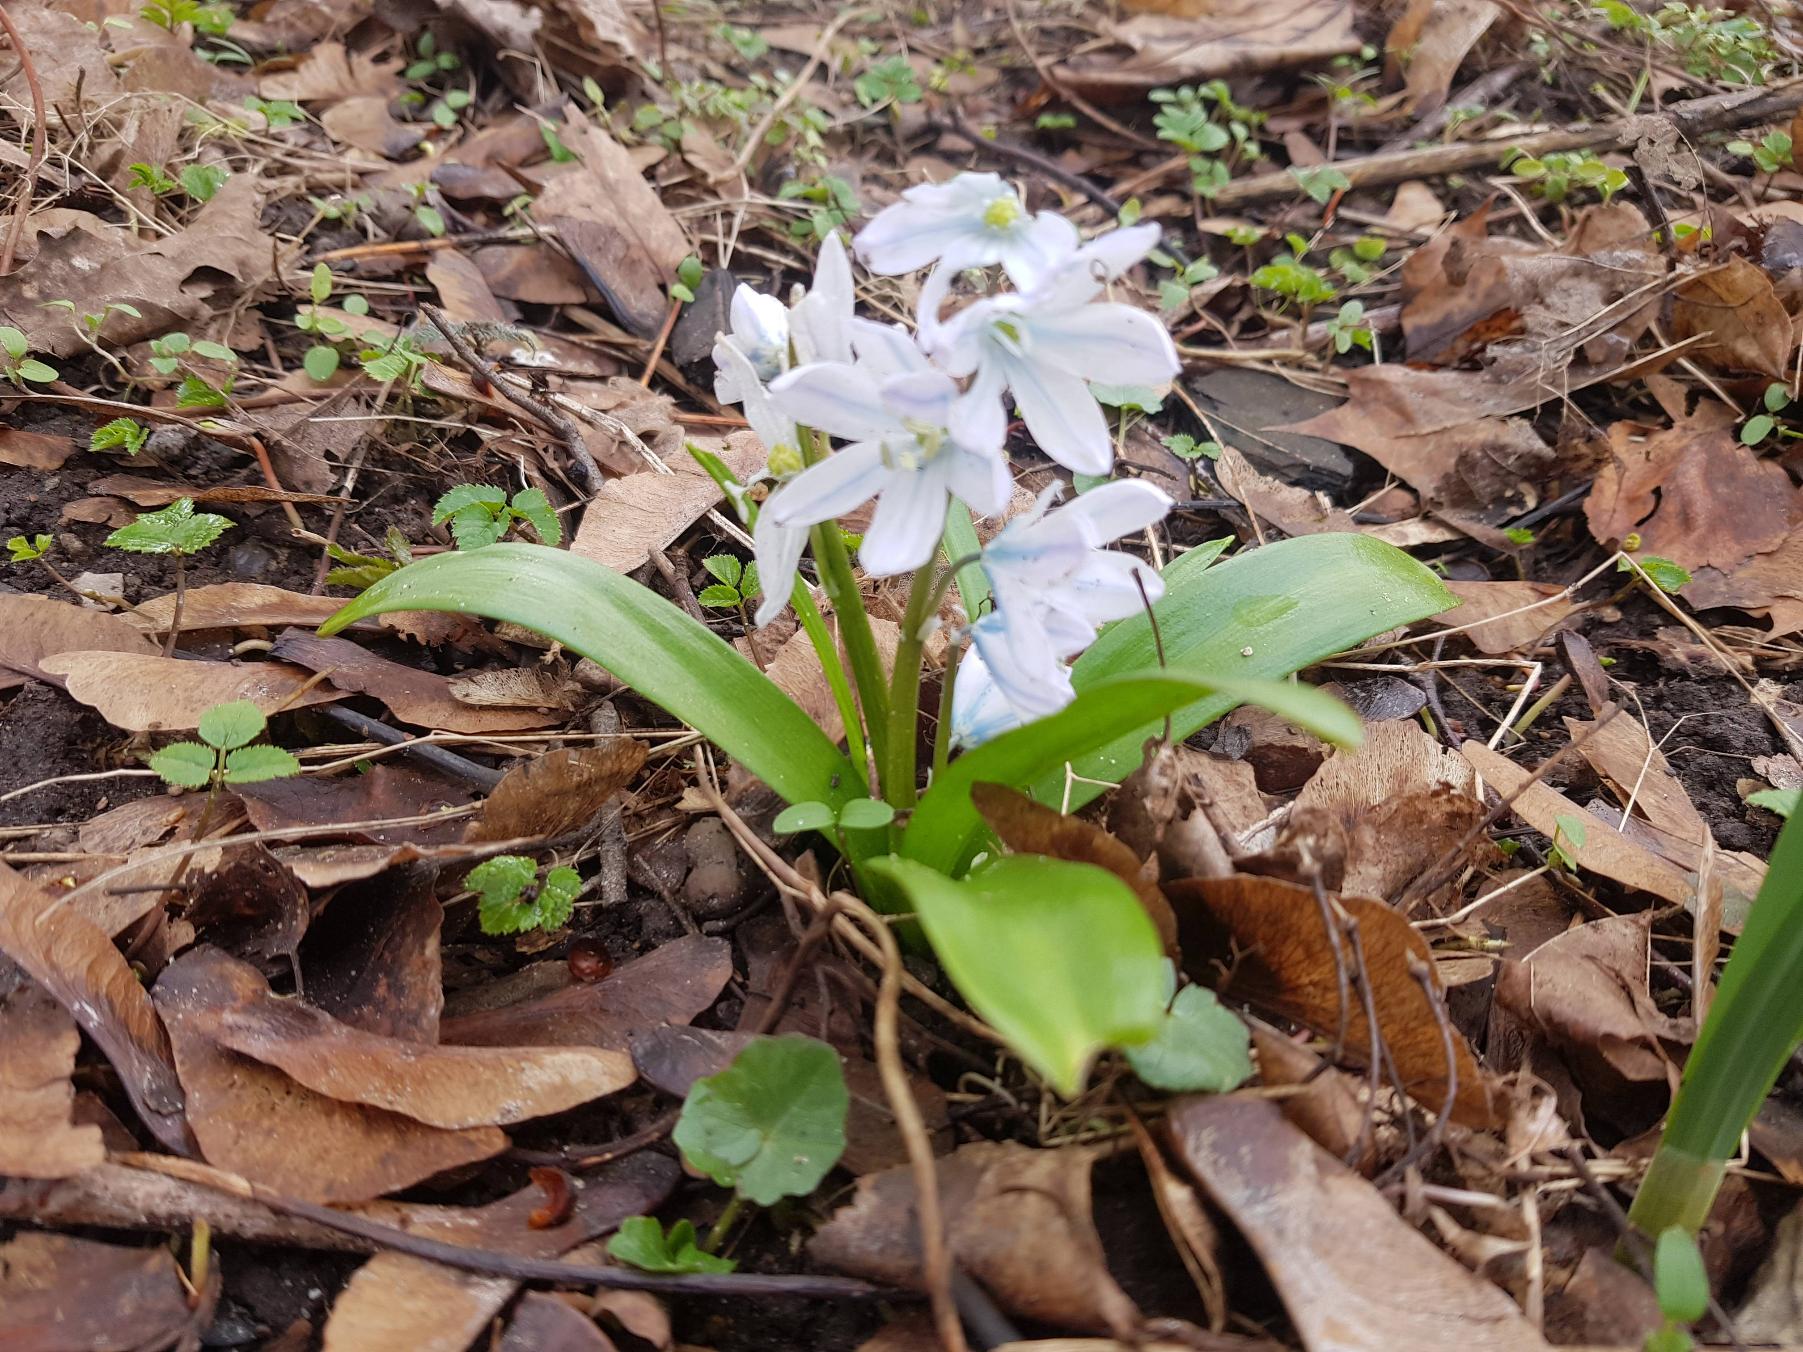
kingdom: Plantae
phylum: Tracheophyta
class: Liliopsida
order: Asparagales
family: Asparagaceae
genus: Scilla
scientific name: Scilla mischtschenkoana
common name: Persisk skilla
